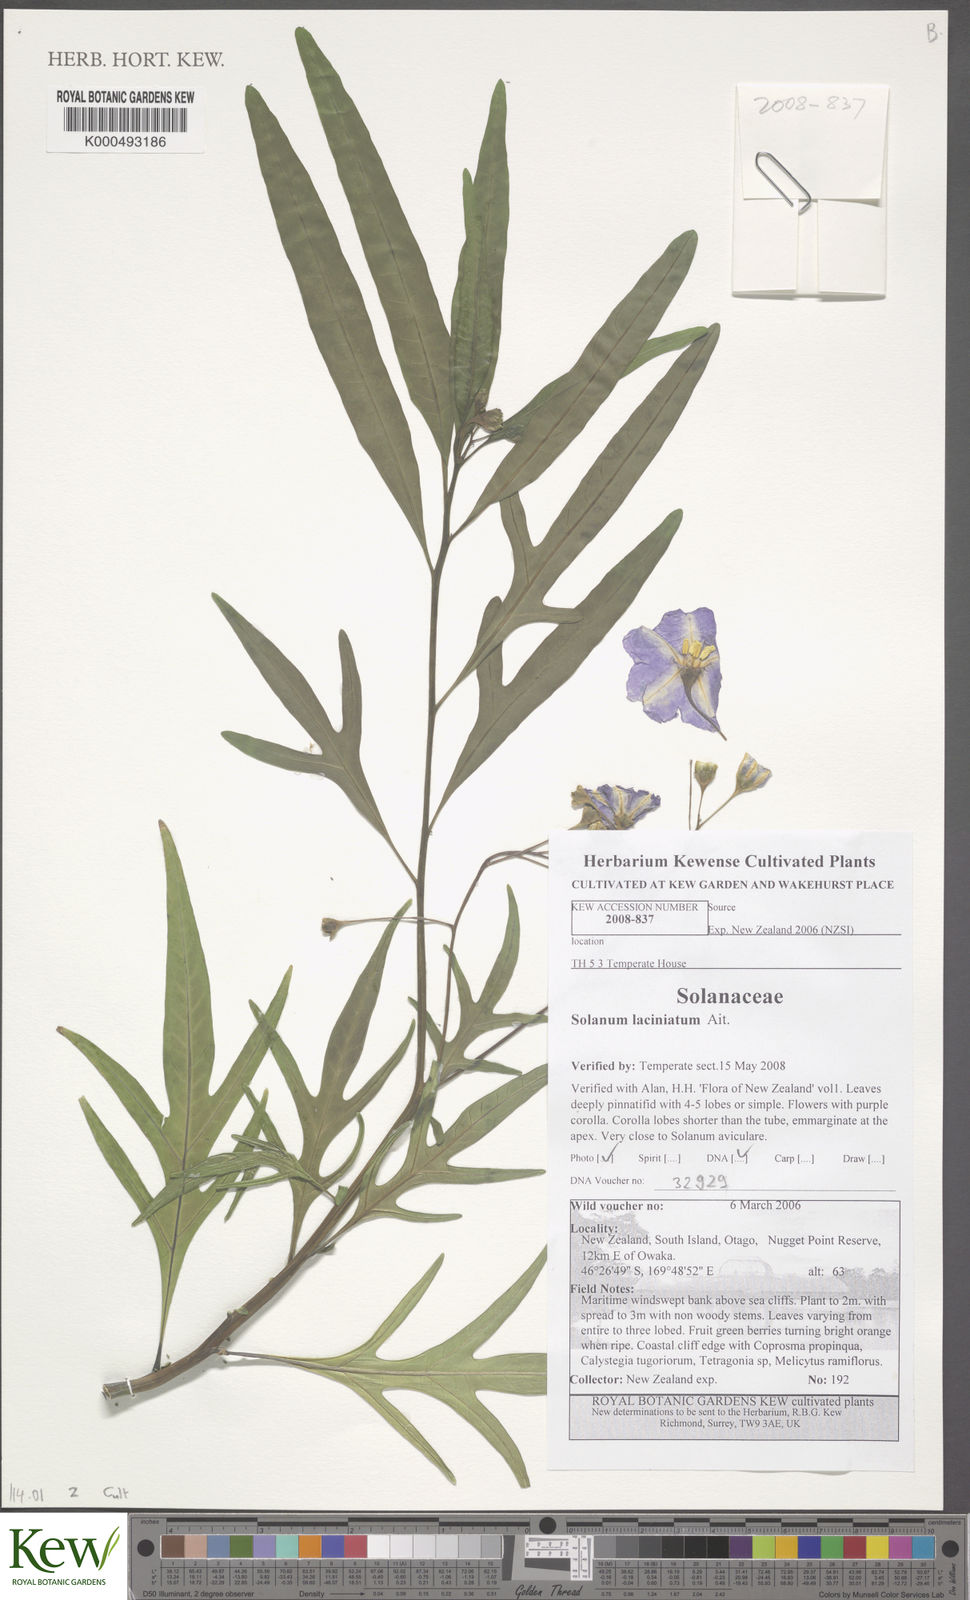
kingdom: Plantae
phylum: Tracheophyta
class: Magnoliopsida
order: Solanales
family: Solanaceae
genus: Solanum
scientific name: Solanum laciniatum
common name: Kangaroo-apple
